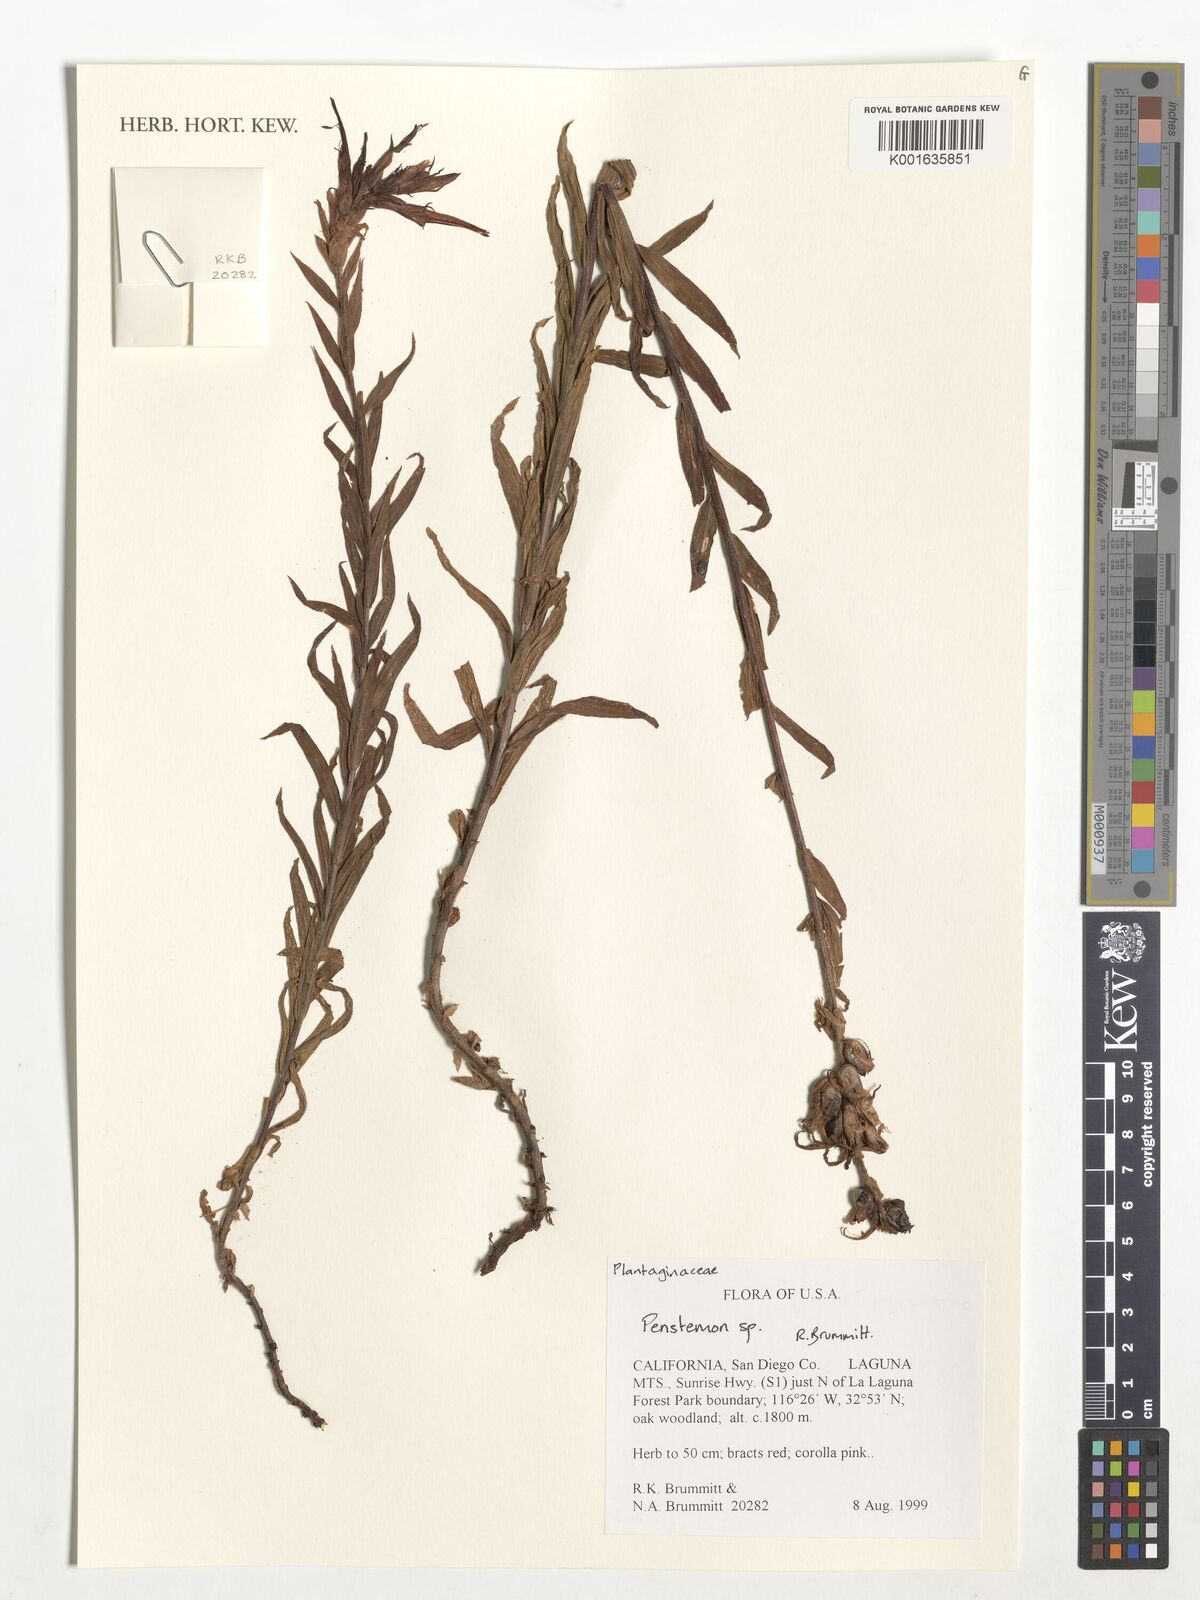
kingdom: Plantae
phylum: Tracheophyta
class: Magnoliopsida
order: Lamiales
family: Plantaginaceae
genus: Penstemon
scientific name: Penstemon
